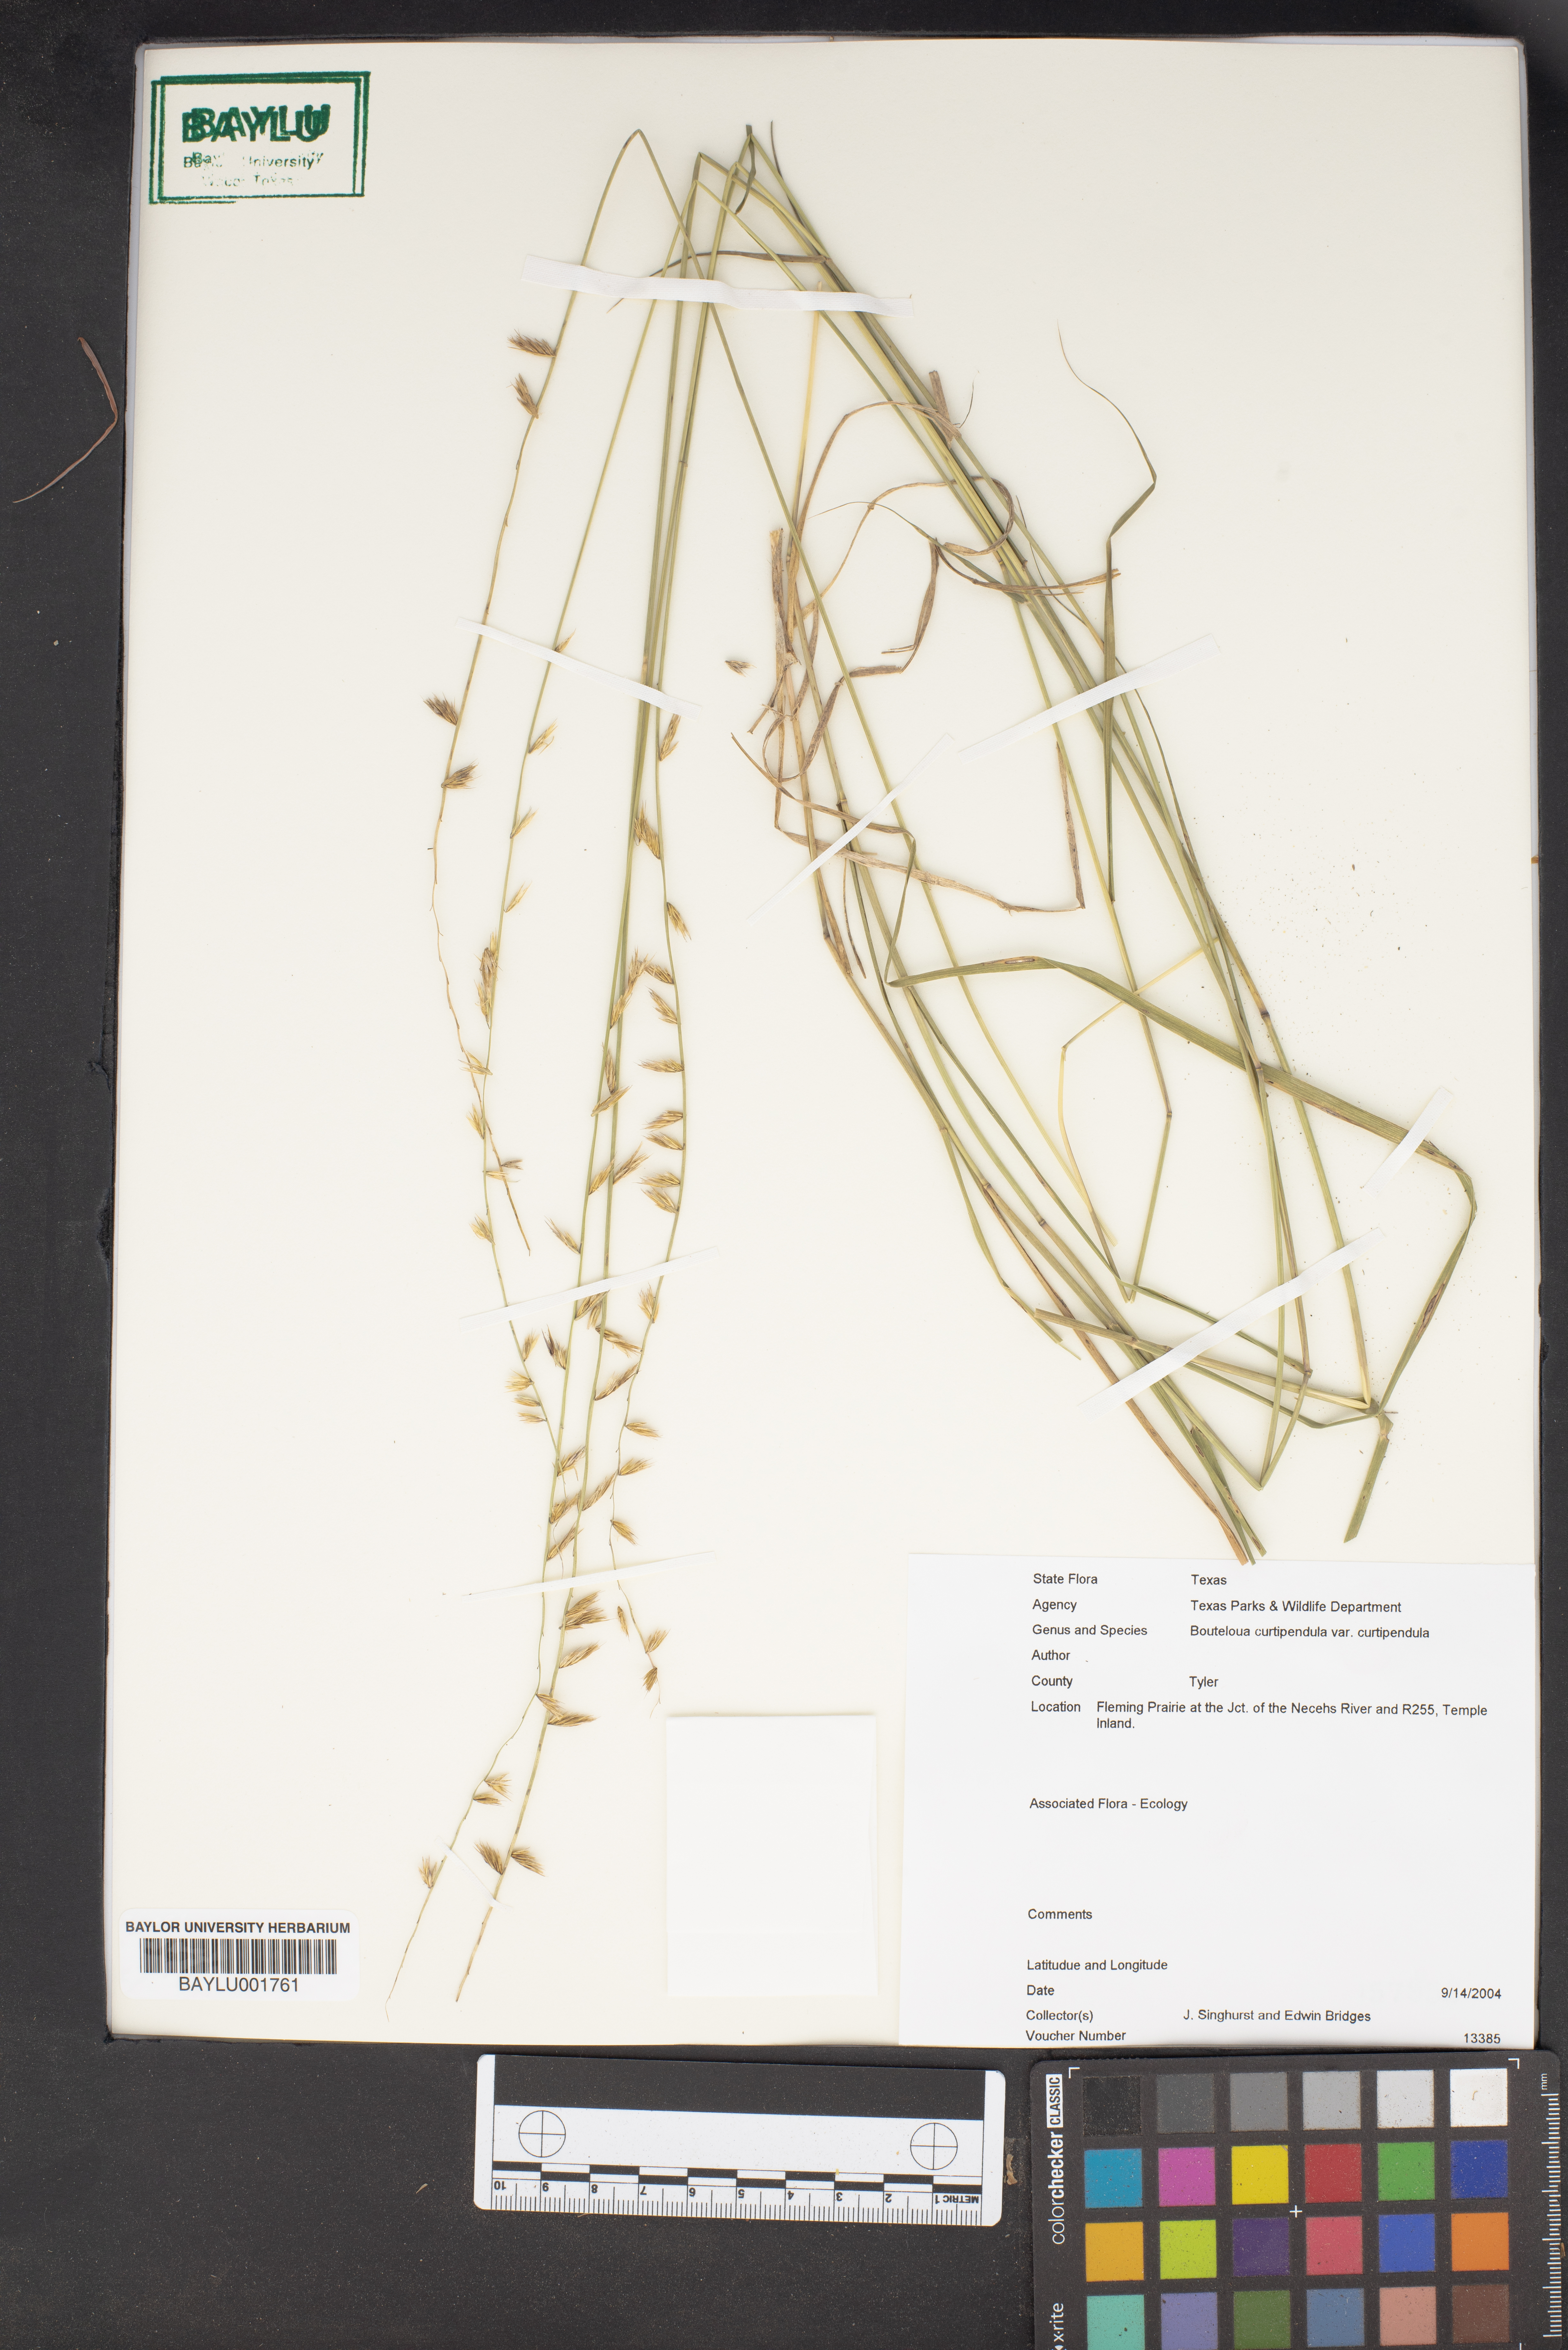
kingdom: Plantae
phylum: Tracheophyta
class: Liliopsida
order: Poales
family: Poaceae
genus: Bouteloua
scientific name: Bouteloua curtipendula
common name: Side-oats grama
